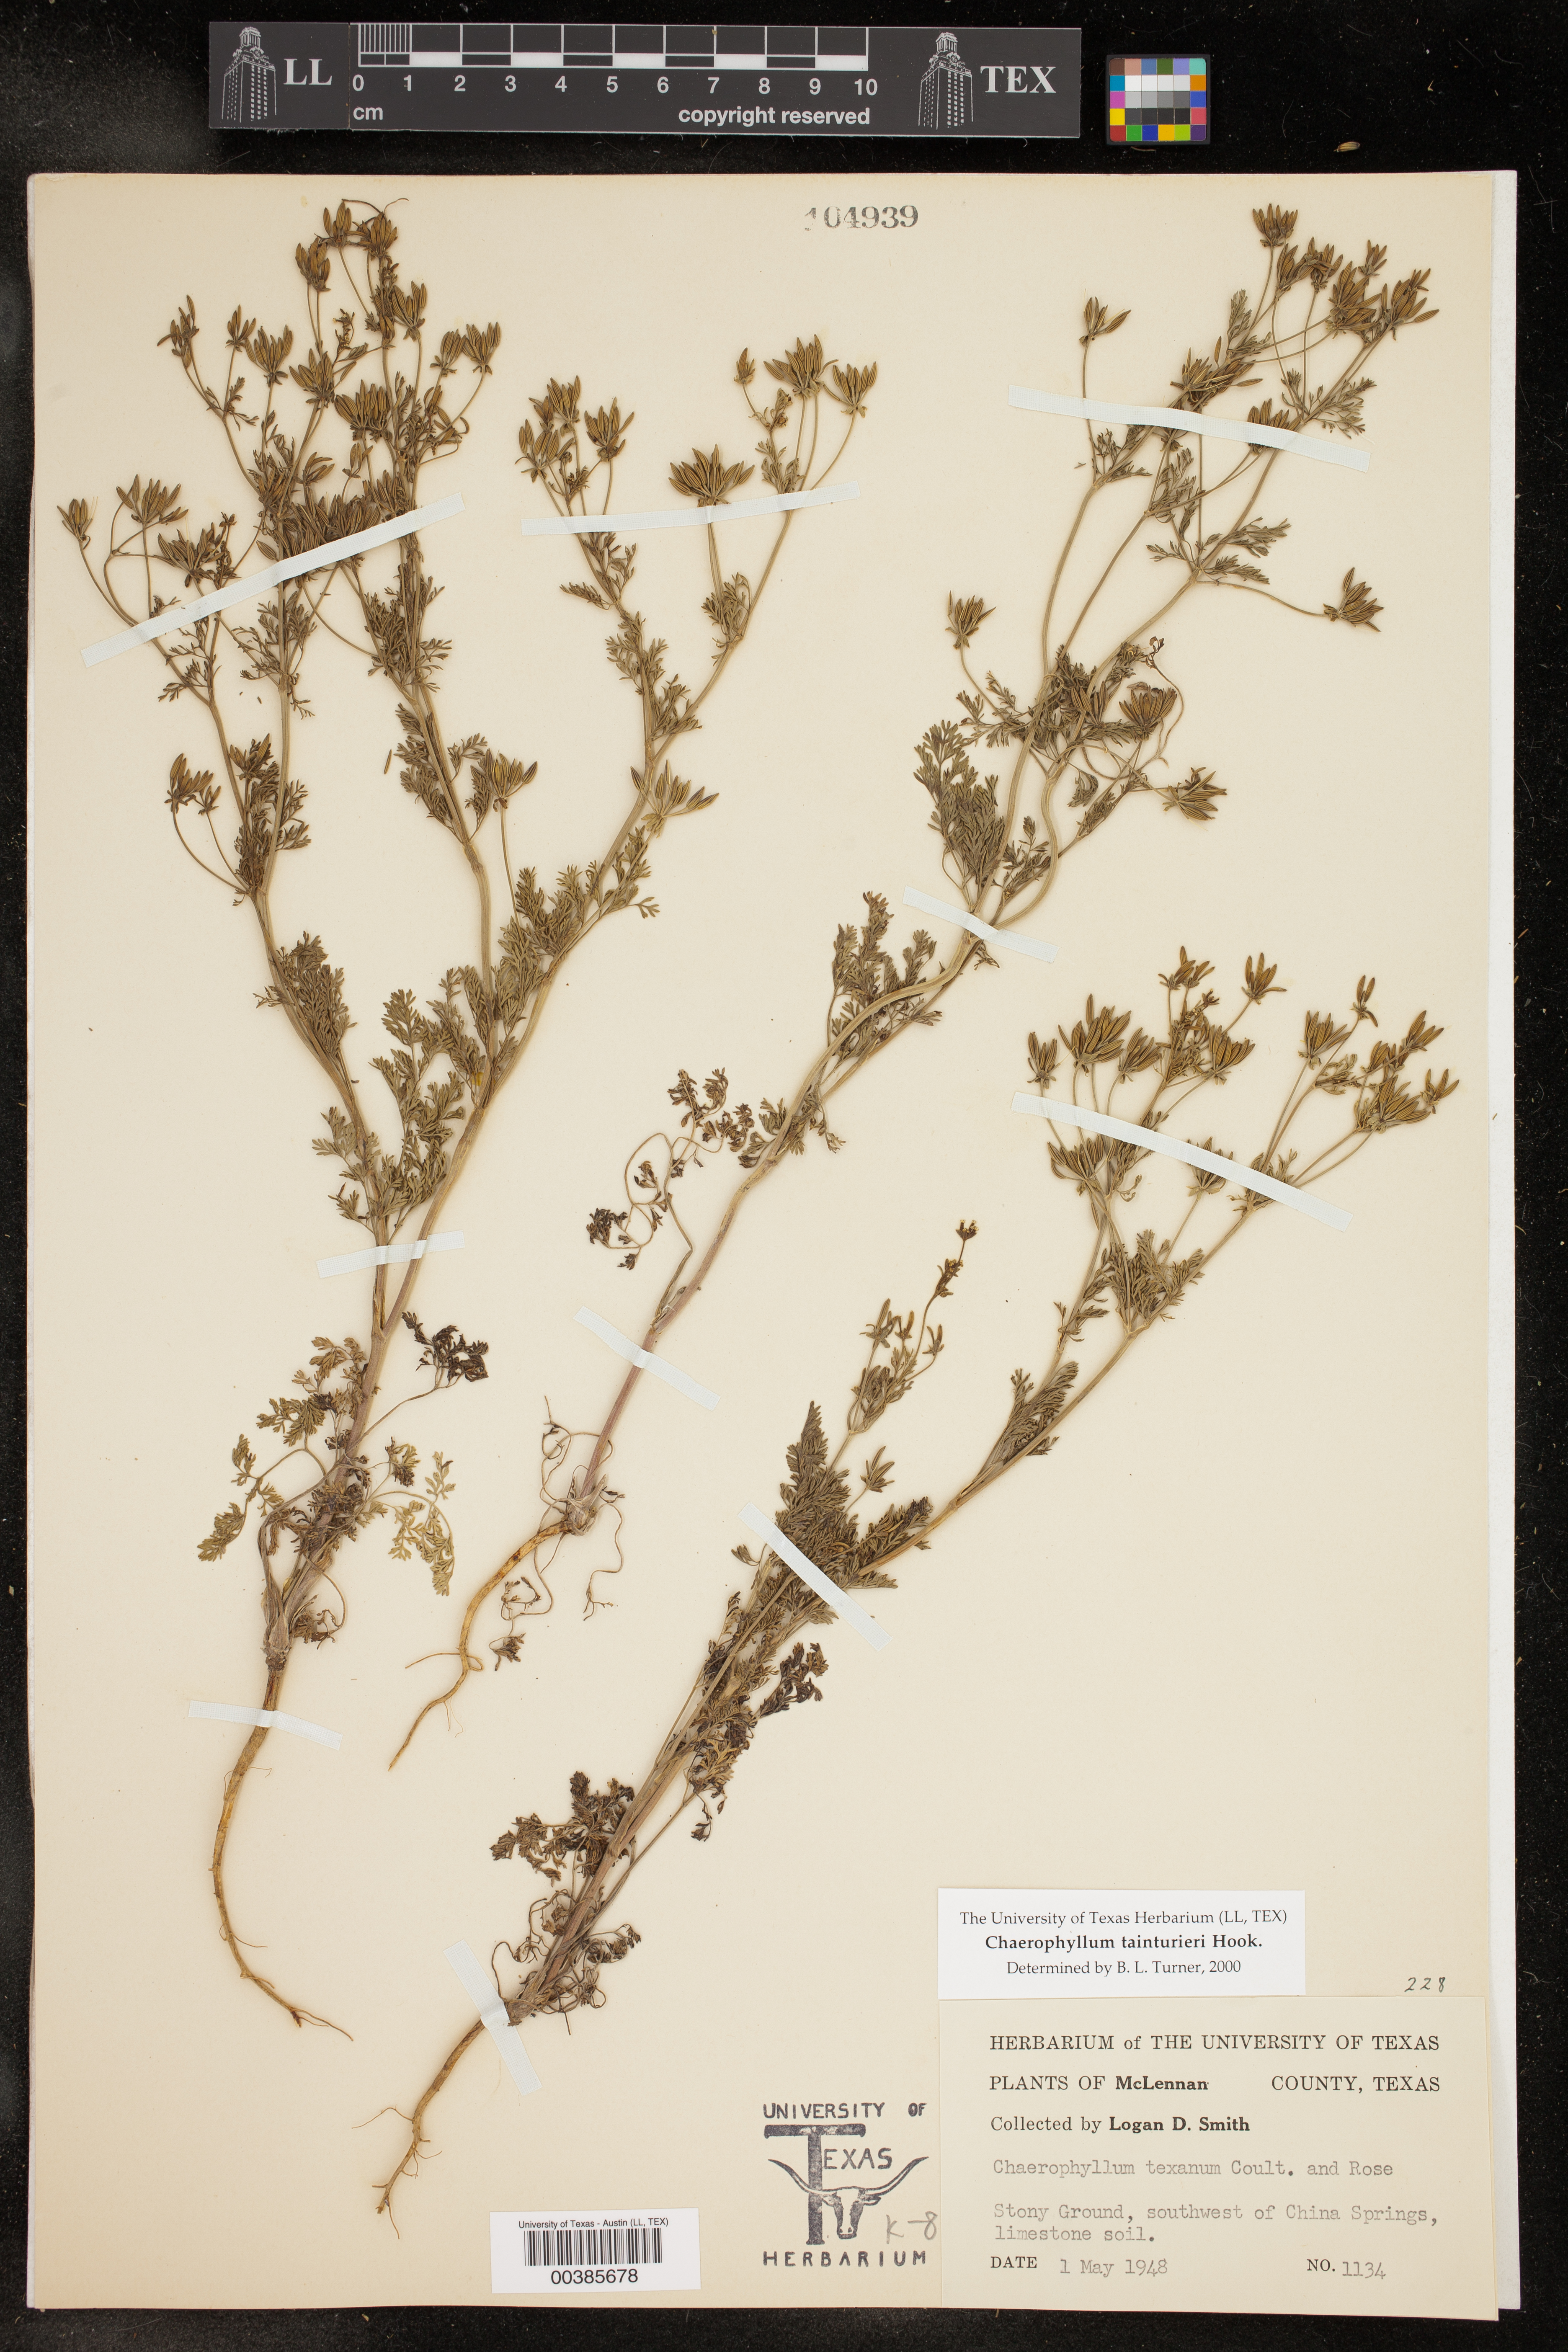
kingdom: Plantae
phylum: Tracheophyta
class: Magnoliopsida
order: Apiales
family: Apiaceae
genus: Chaerophyllum
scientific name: Chaerophyllum tainturieri
